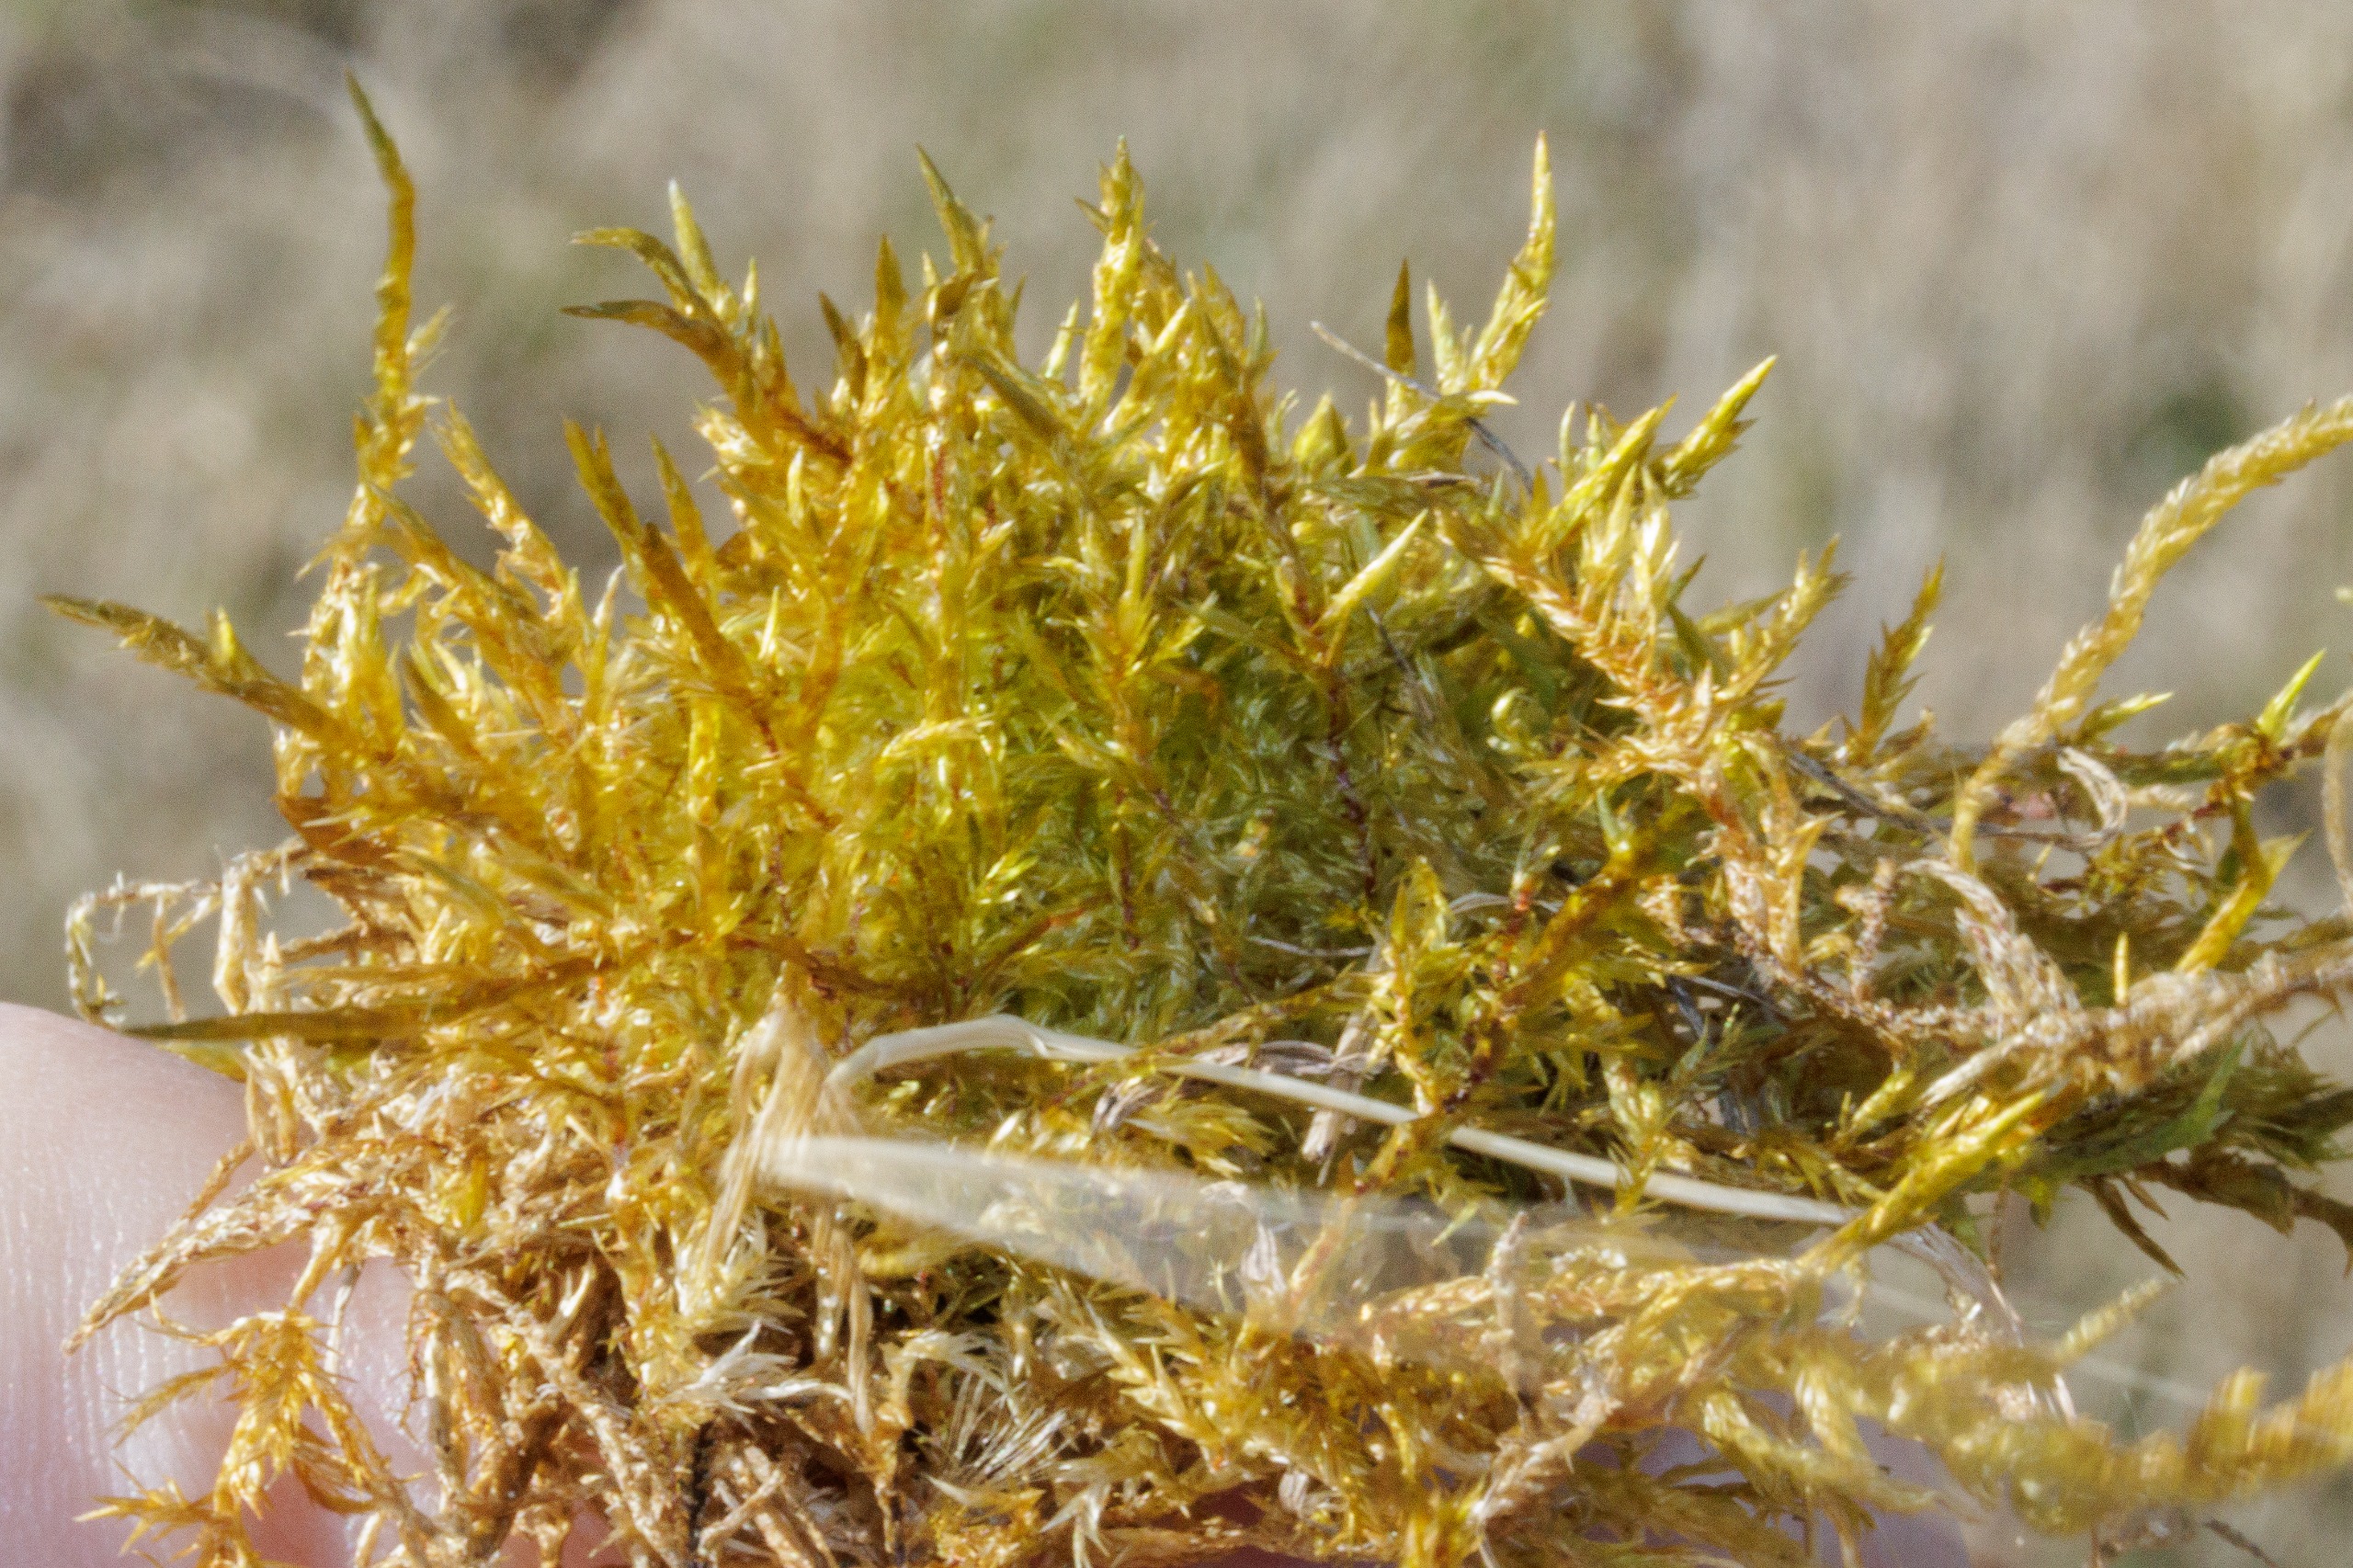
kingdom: Plantae
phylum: Bryophyta
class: Bryopsida
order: Hypnales
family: Pylaisiaceae
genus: Calliergonella
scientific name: Calliergonella cuspidata
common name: Spids spydmos
